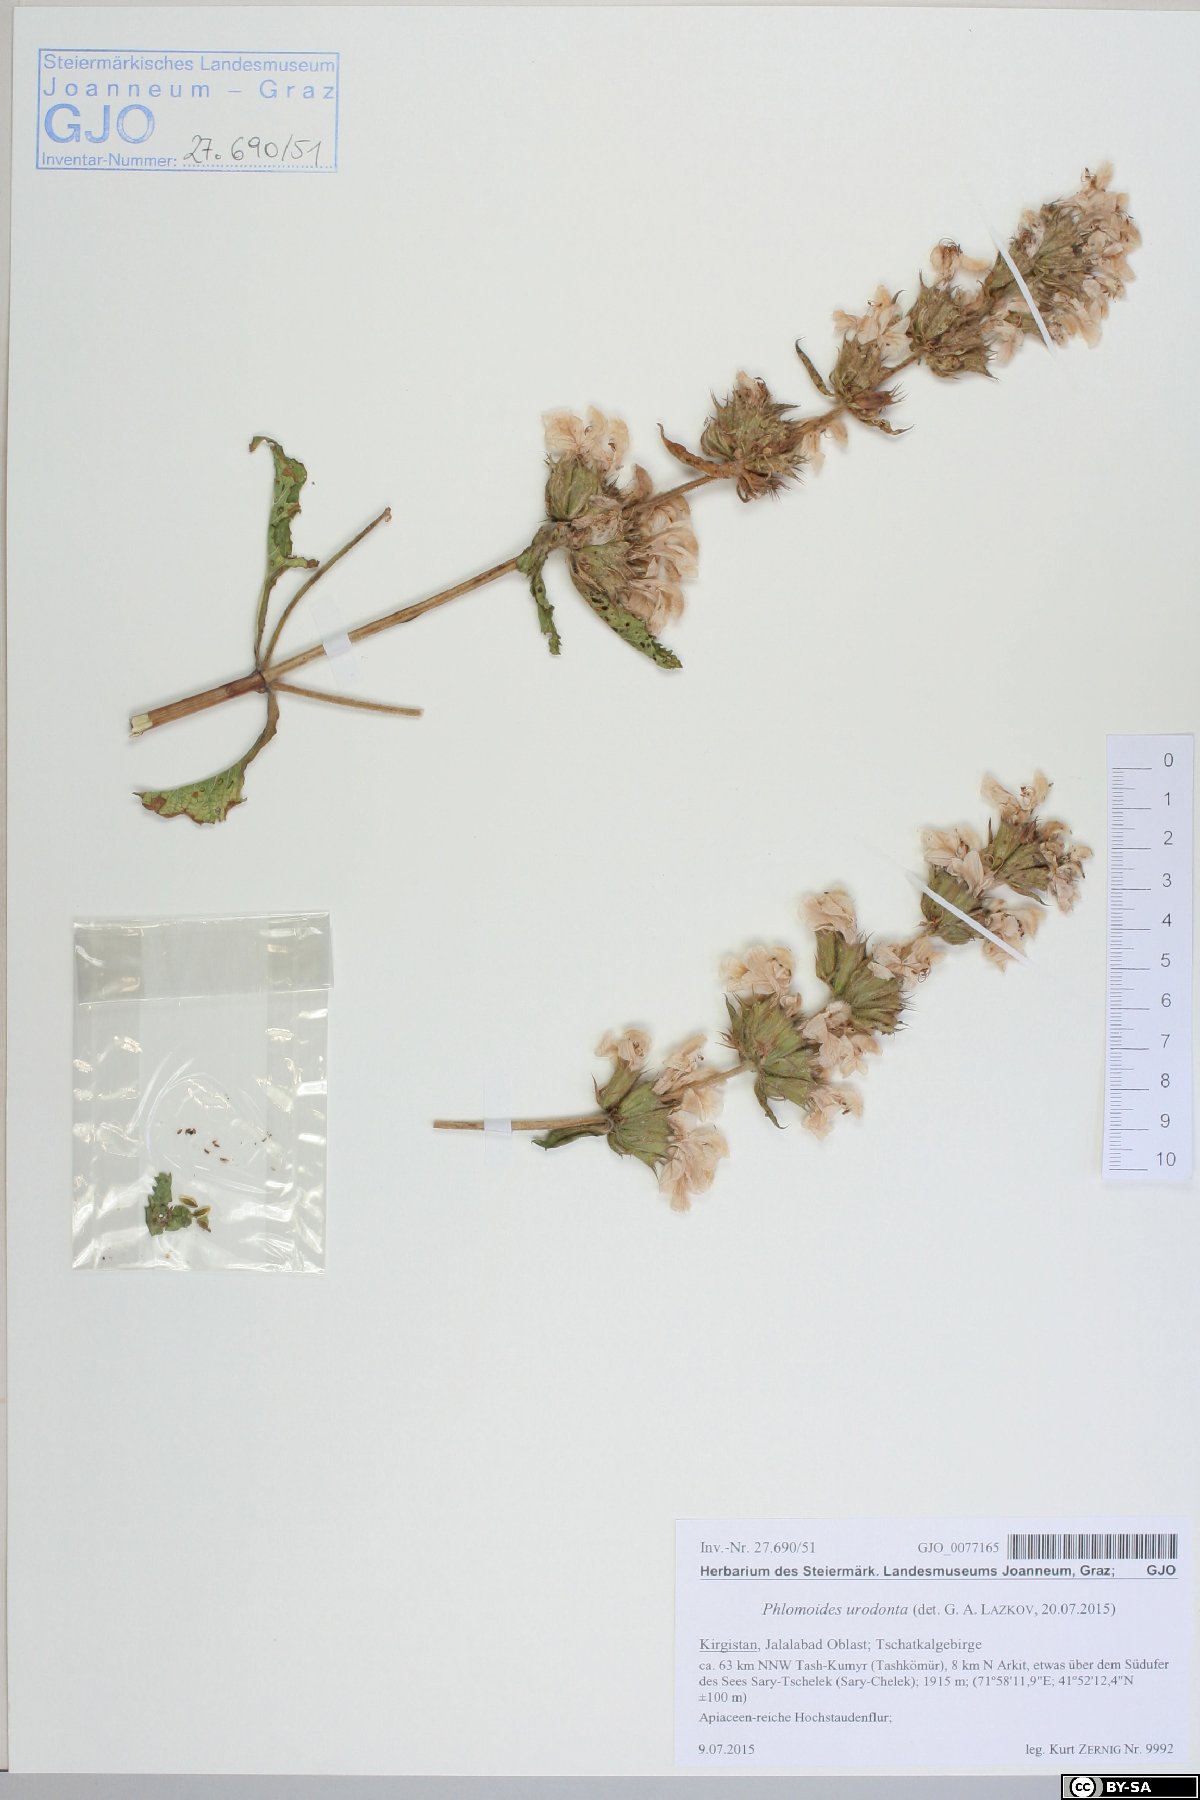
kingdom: Plantae
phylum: Tracheophyta
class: Magnoliopsida
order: Lamiales
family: Lamiaceae
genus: Phlomoides
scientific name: Phlomoides urodonta
